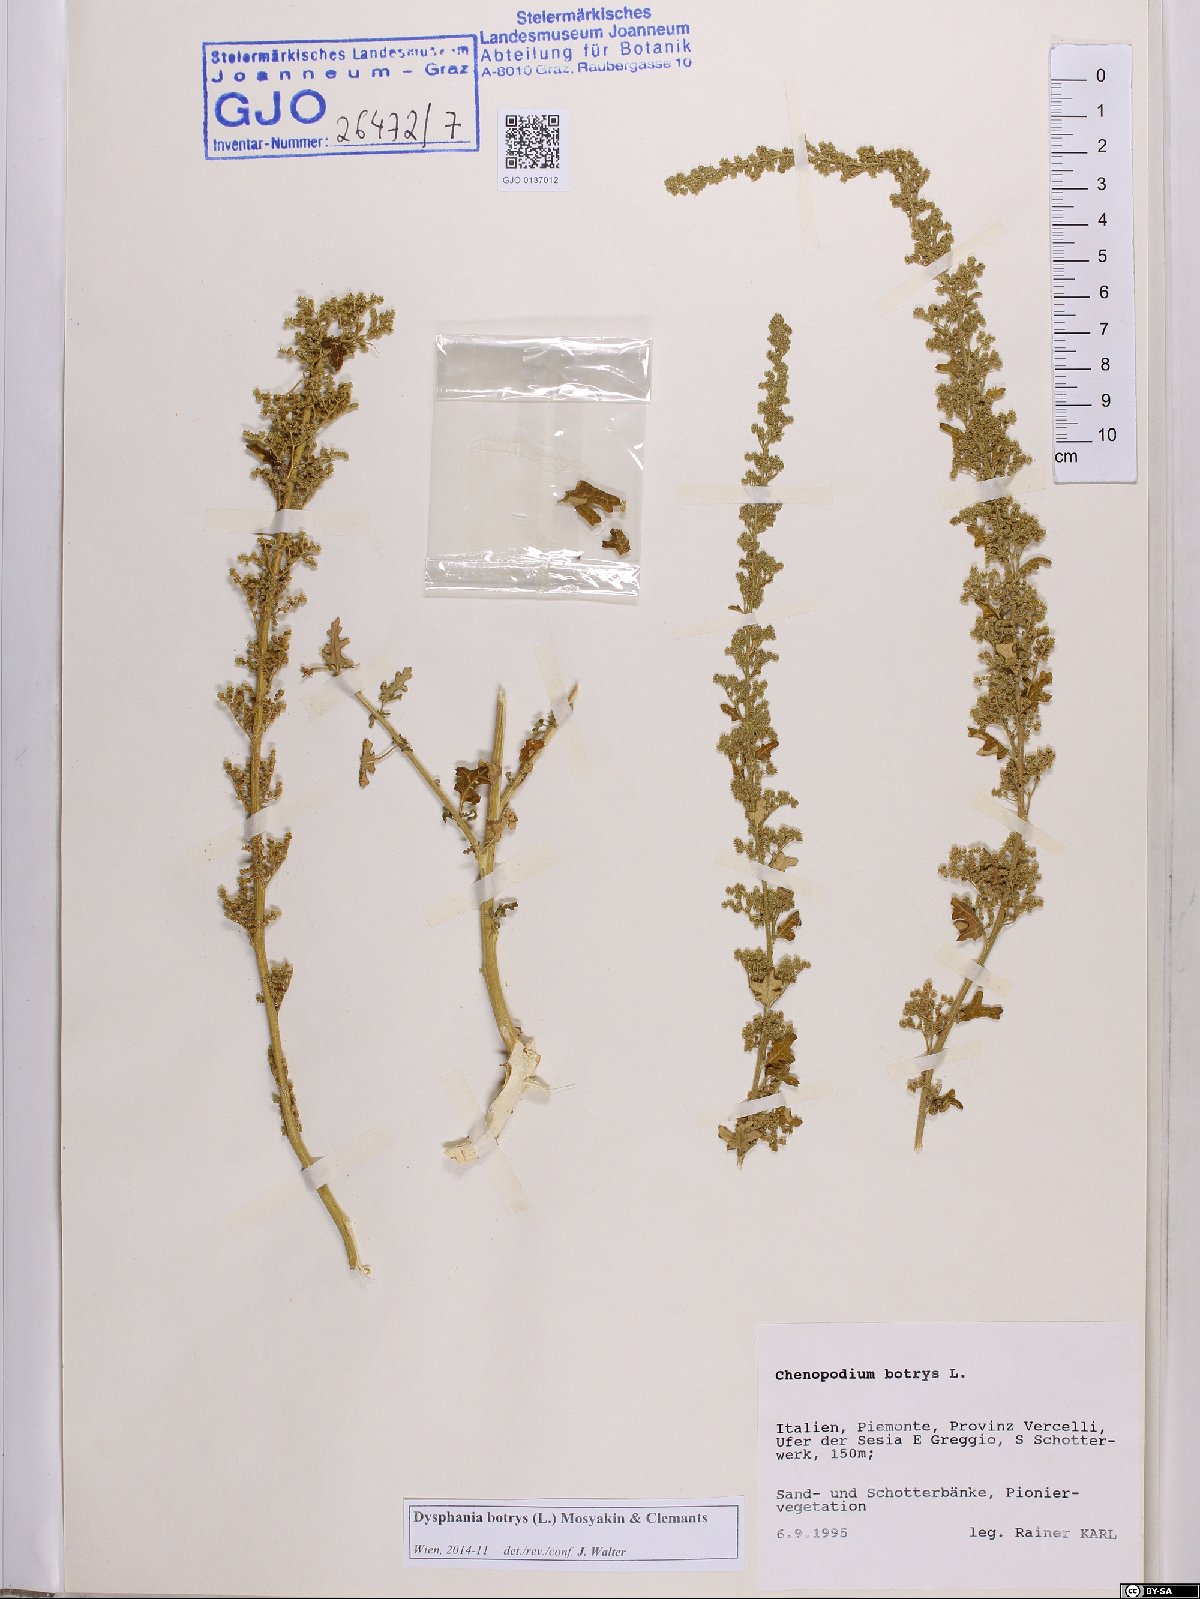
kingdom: Plantae
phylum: Tracheophyta
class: Magnoliopsida
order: Caryophyllales
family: Amaranthaceae
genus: Dysphania
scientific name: Dysphania botrys
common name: Feather-geranium
